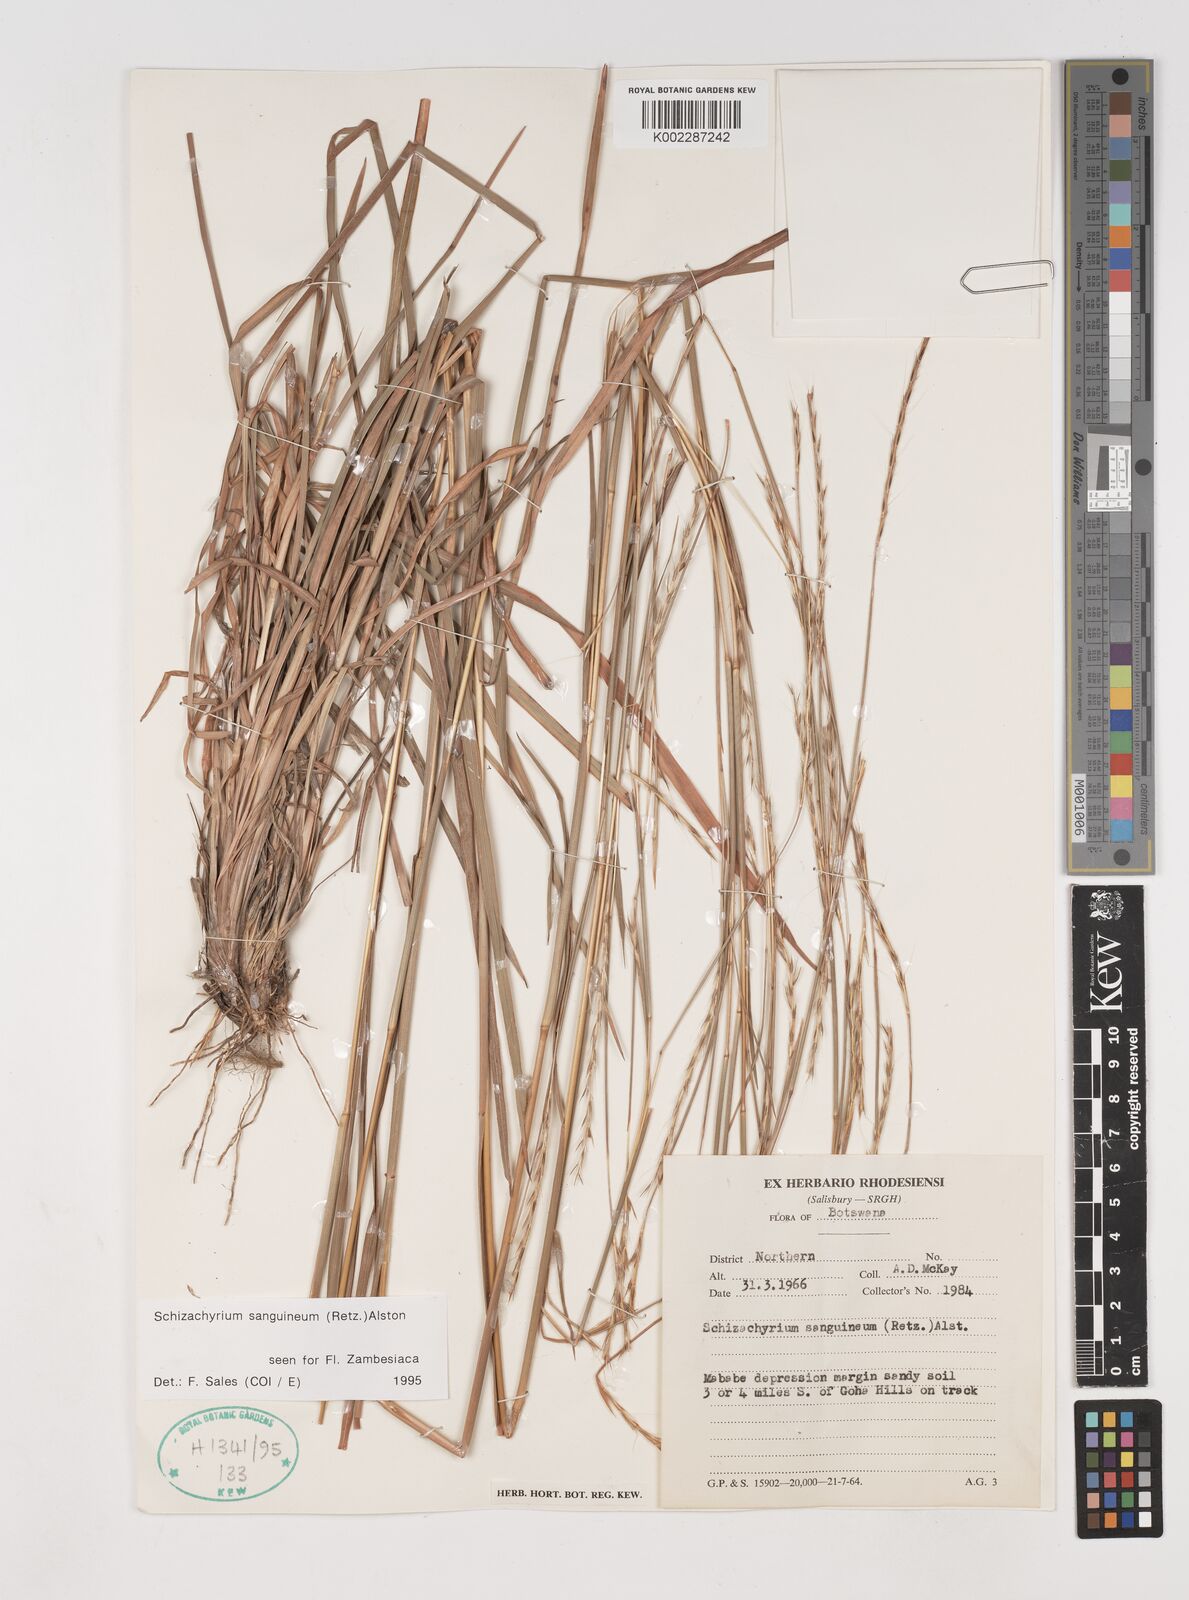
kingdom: Plantae
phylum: Tracheophyta
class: Liliopsida
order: Poales
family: Poaceae
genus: Schizachyrium
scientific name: Schizachyrium sanguineum
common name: Crimson bluestem
